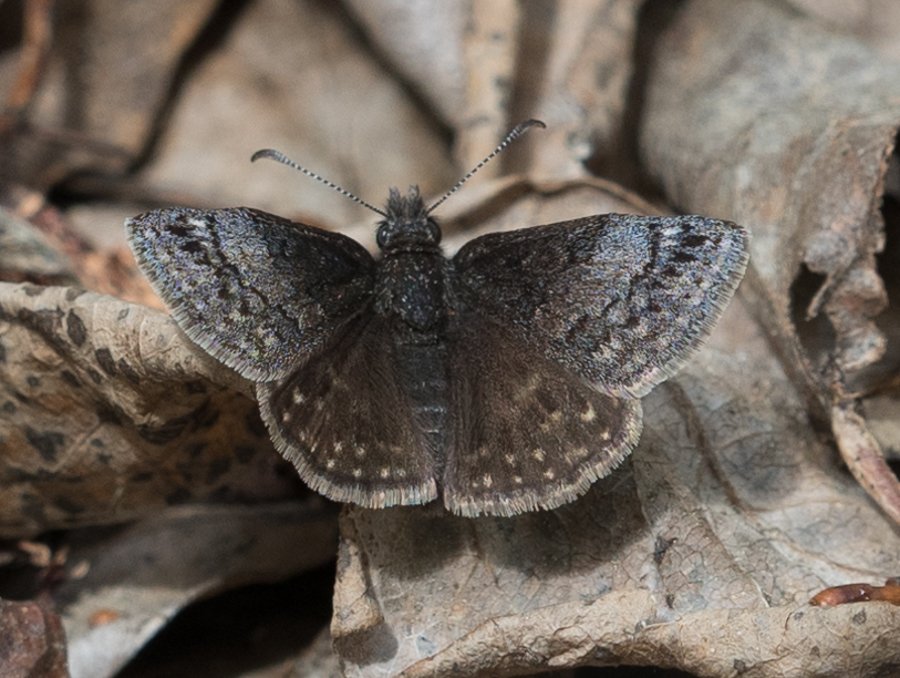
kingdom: Animalia
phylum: Arthropoda
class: Insecta
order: Lepidoptera
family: Hesperiidae
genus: Erynnis
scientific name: Erynnis icelus
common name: Dreamy Duskywing
